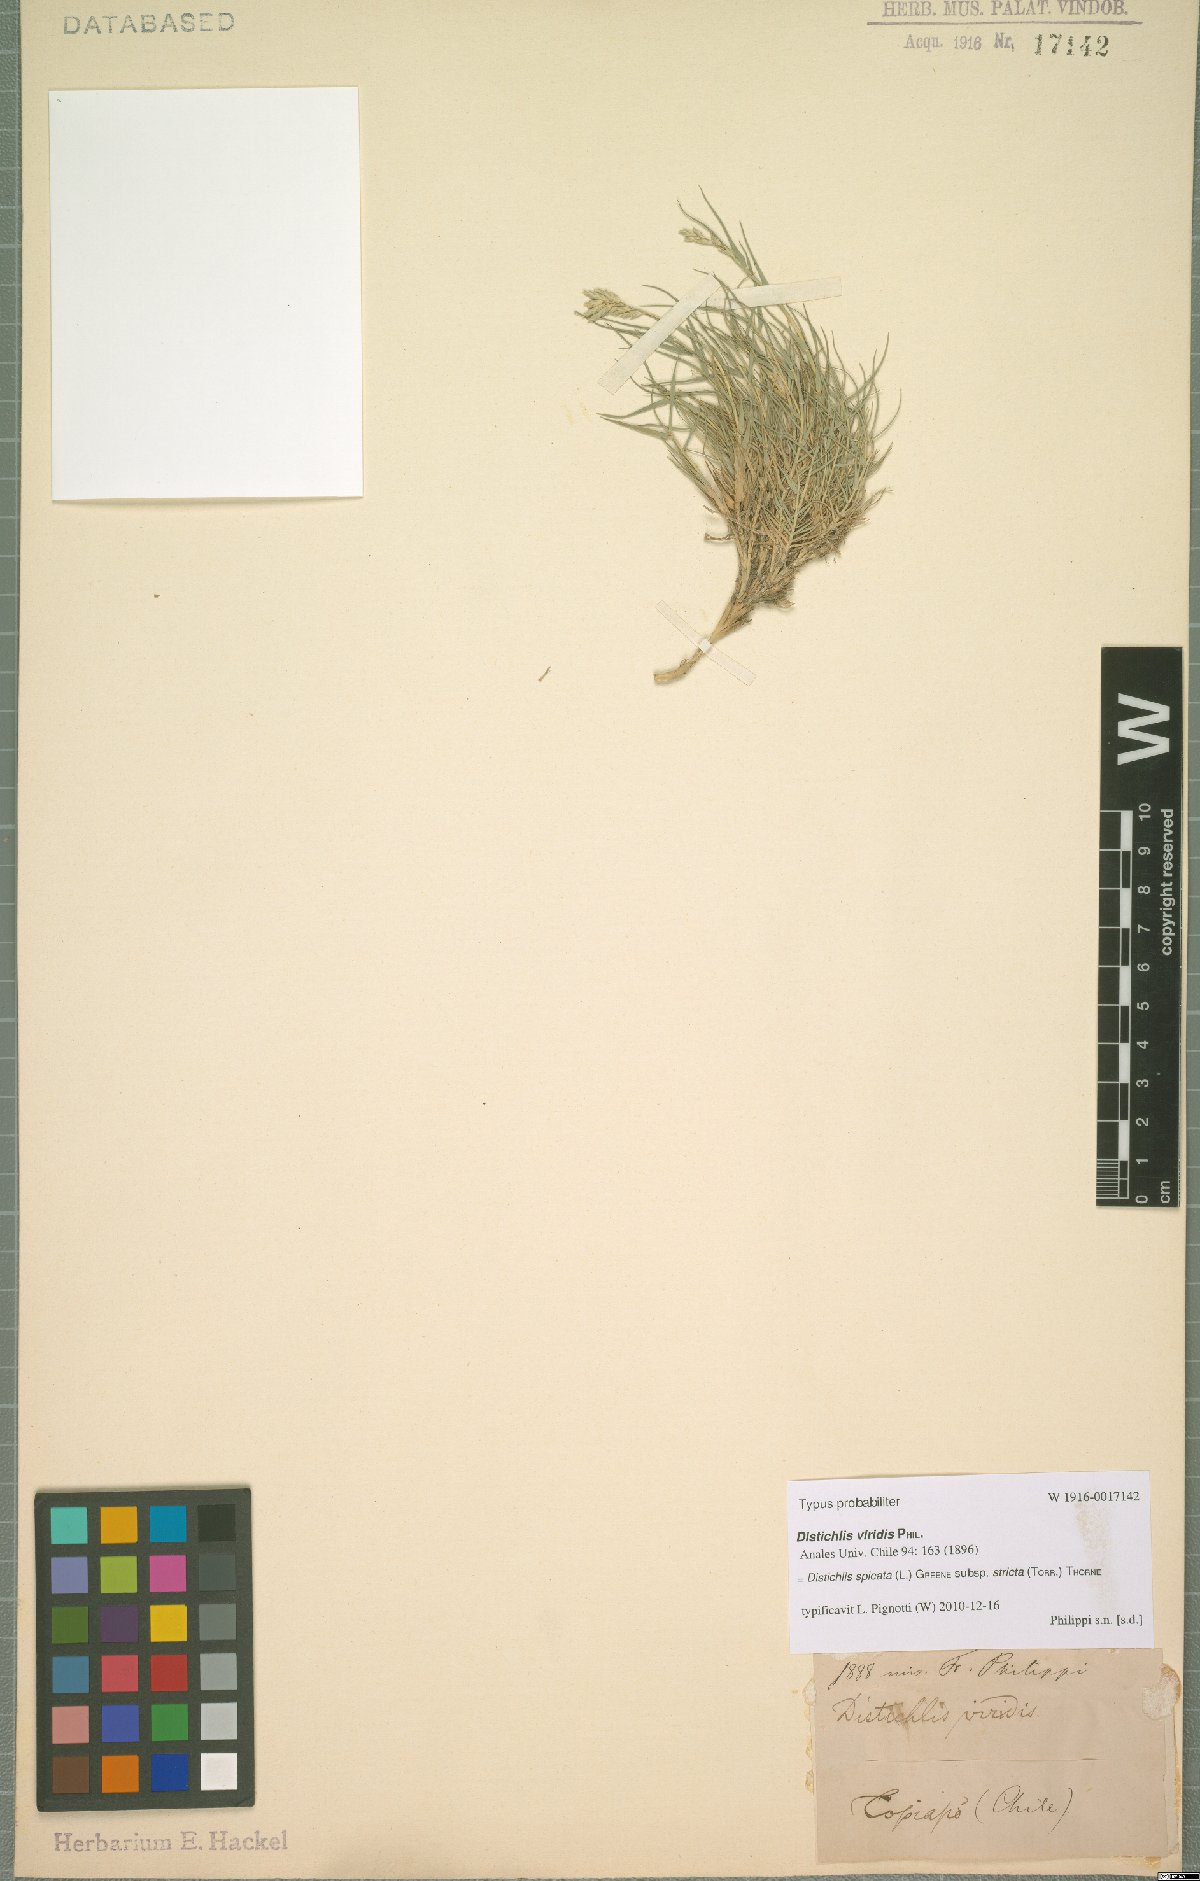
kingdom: Plantae
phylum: Tracheophyta
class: Liliopsida
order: Poales
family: Poaceae
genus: Distichlis
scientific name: Distichlis spicata
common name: Saltgrass
